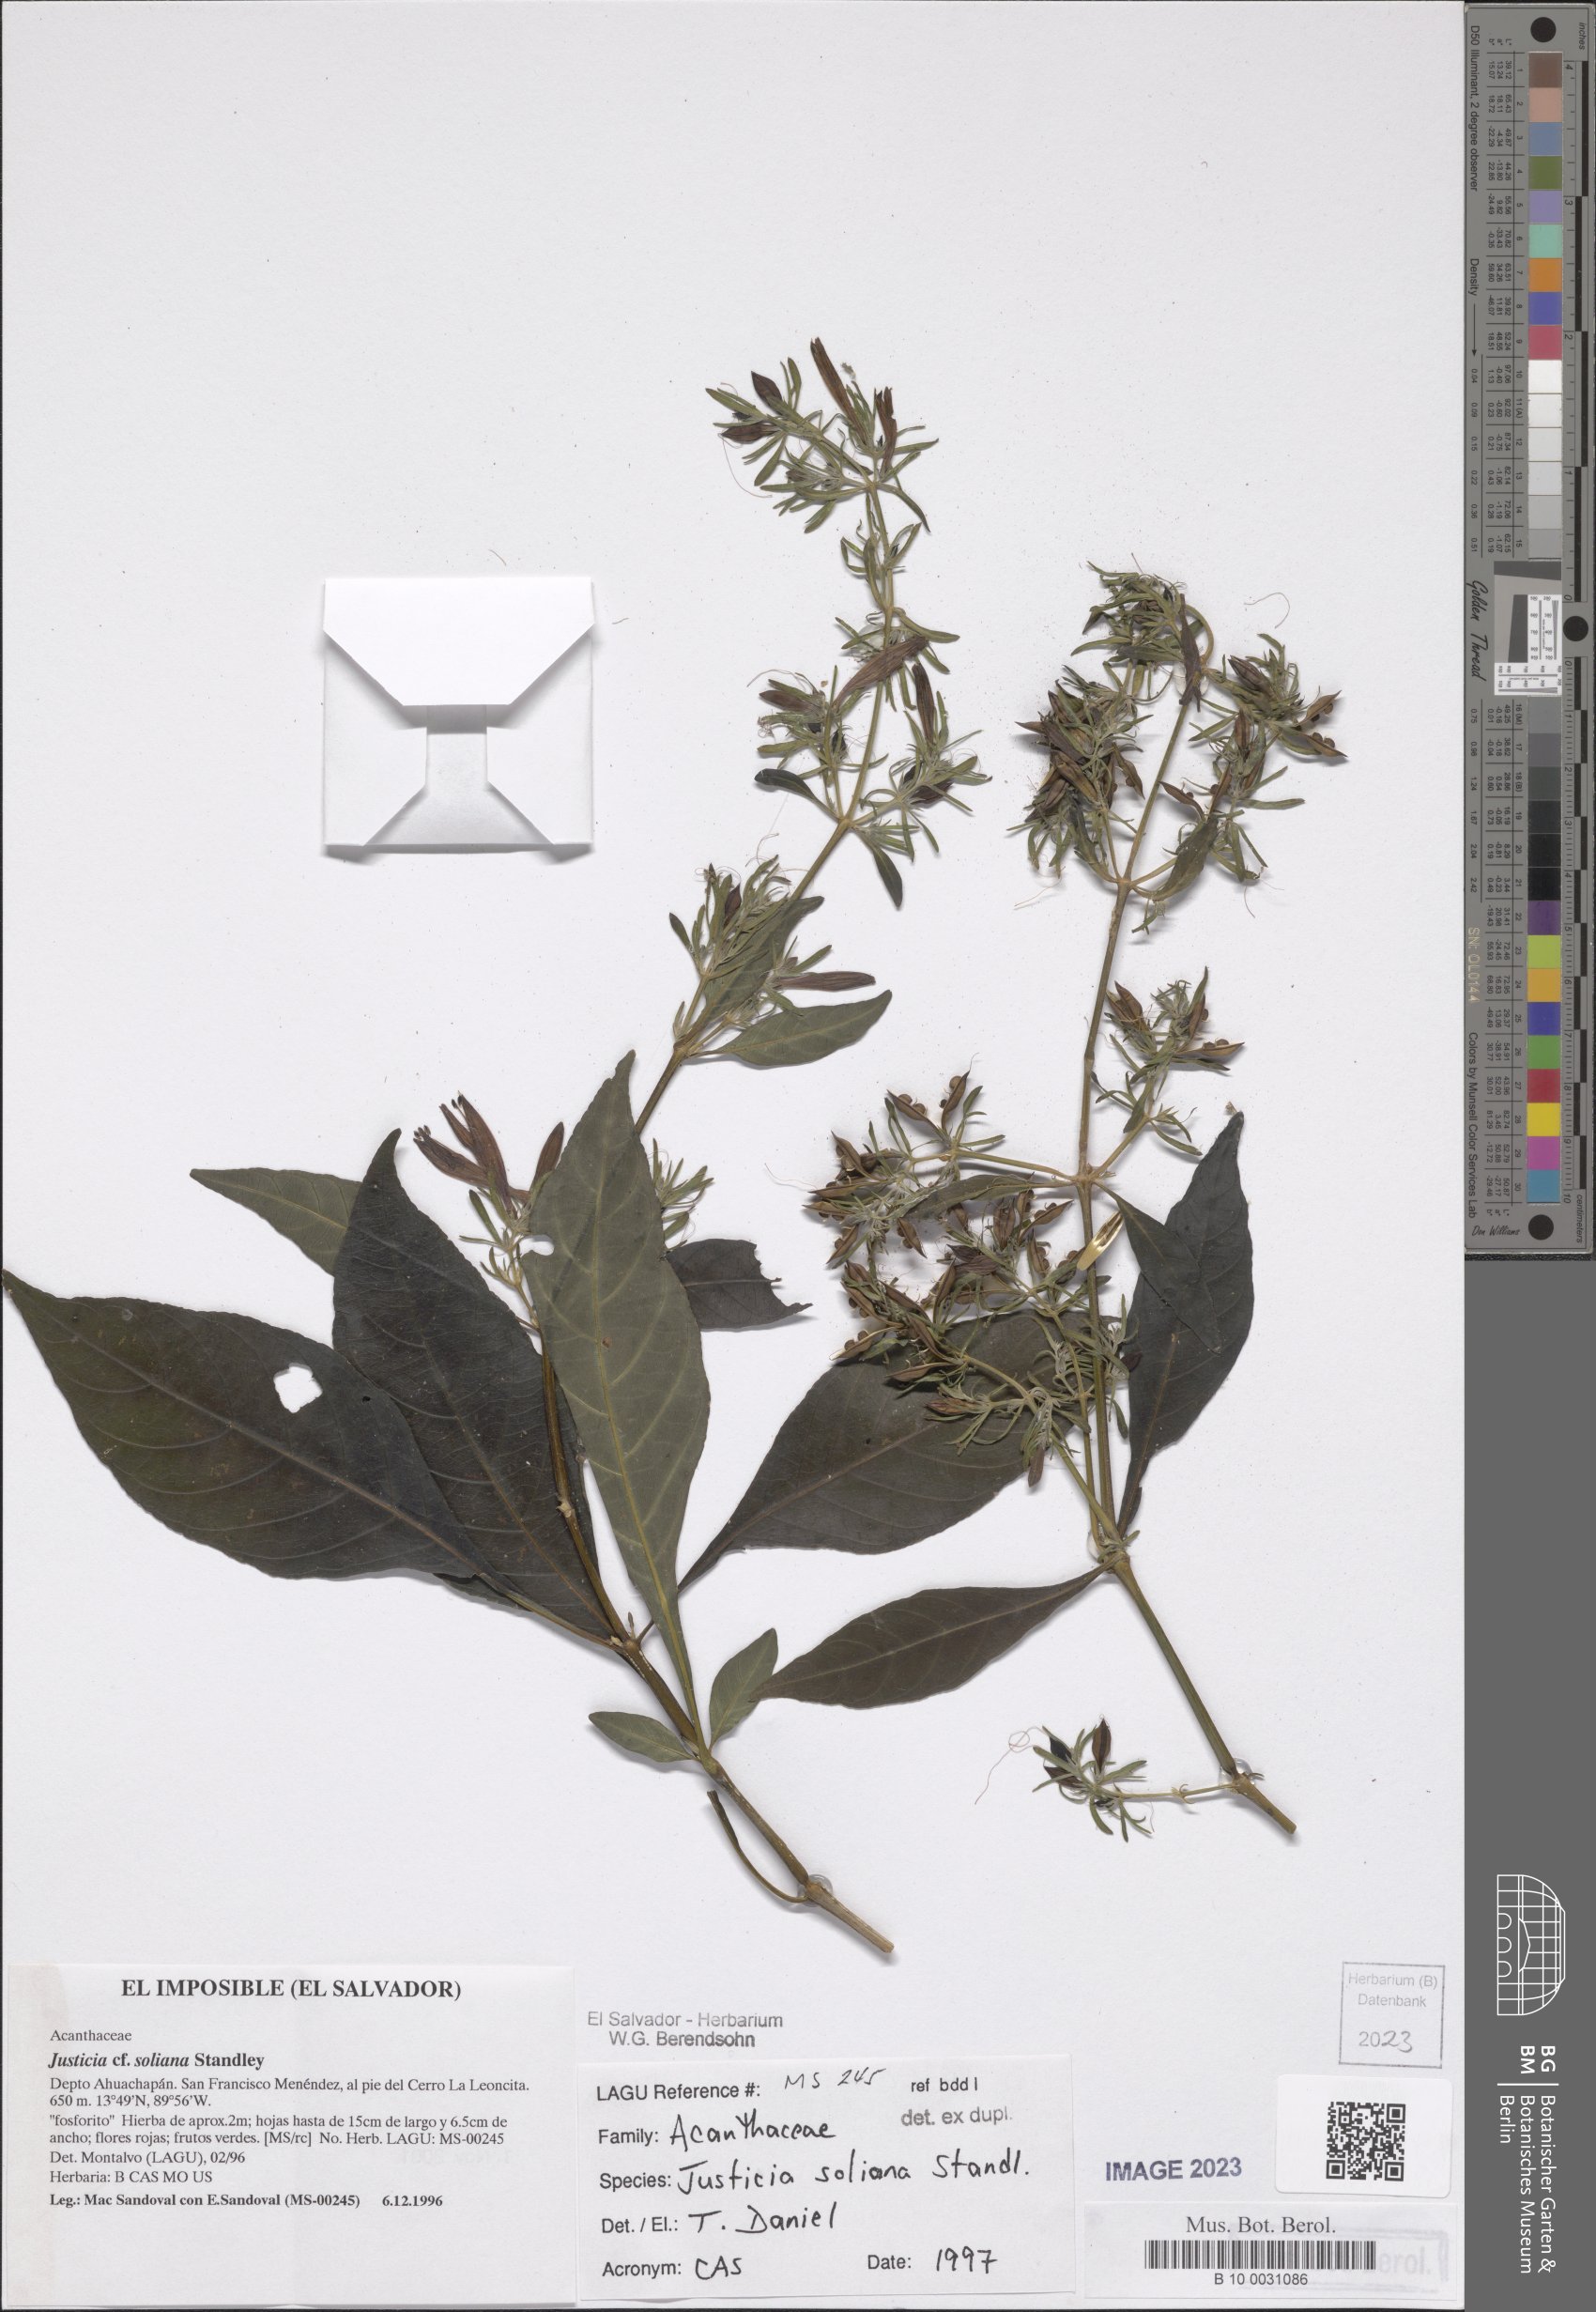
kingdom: Plantae
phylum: Tracheophyta
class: Magnoliopsida
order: Lamiales
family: Acanthaceae
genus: Justicia
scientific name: Justicia soliana
